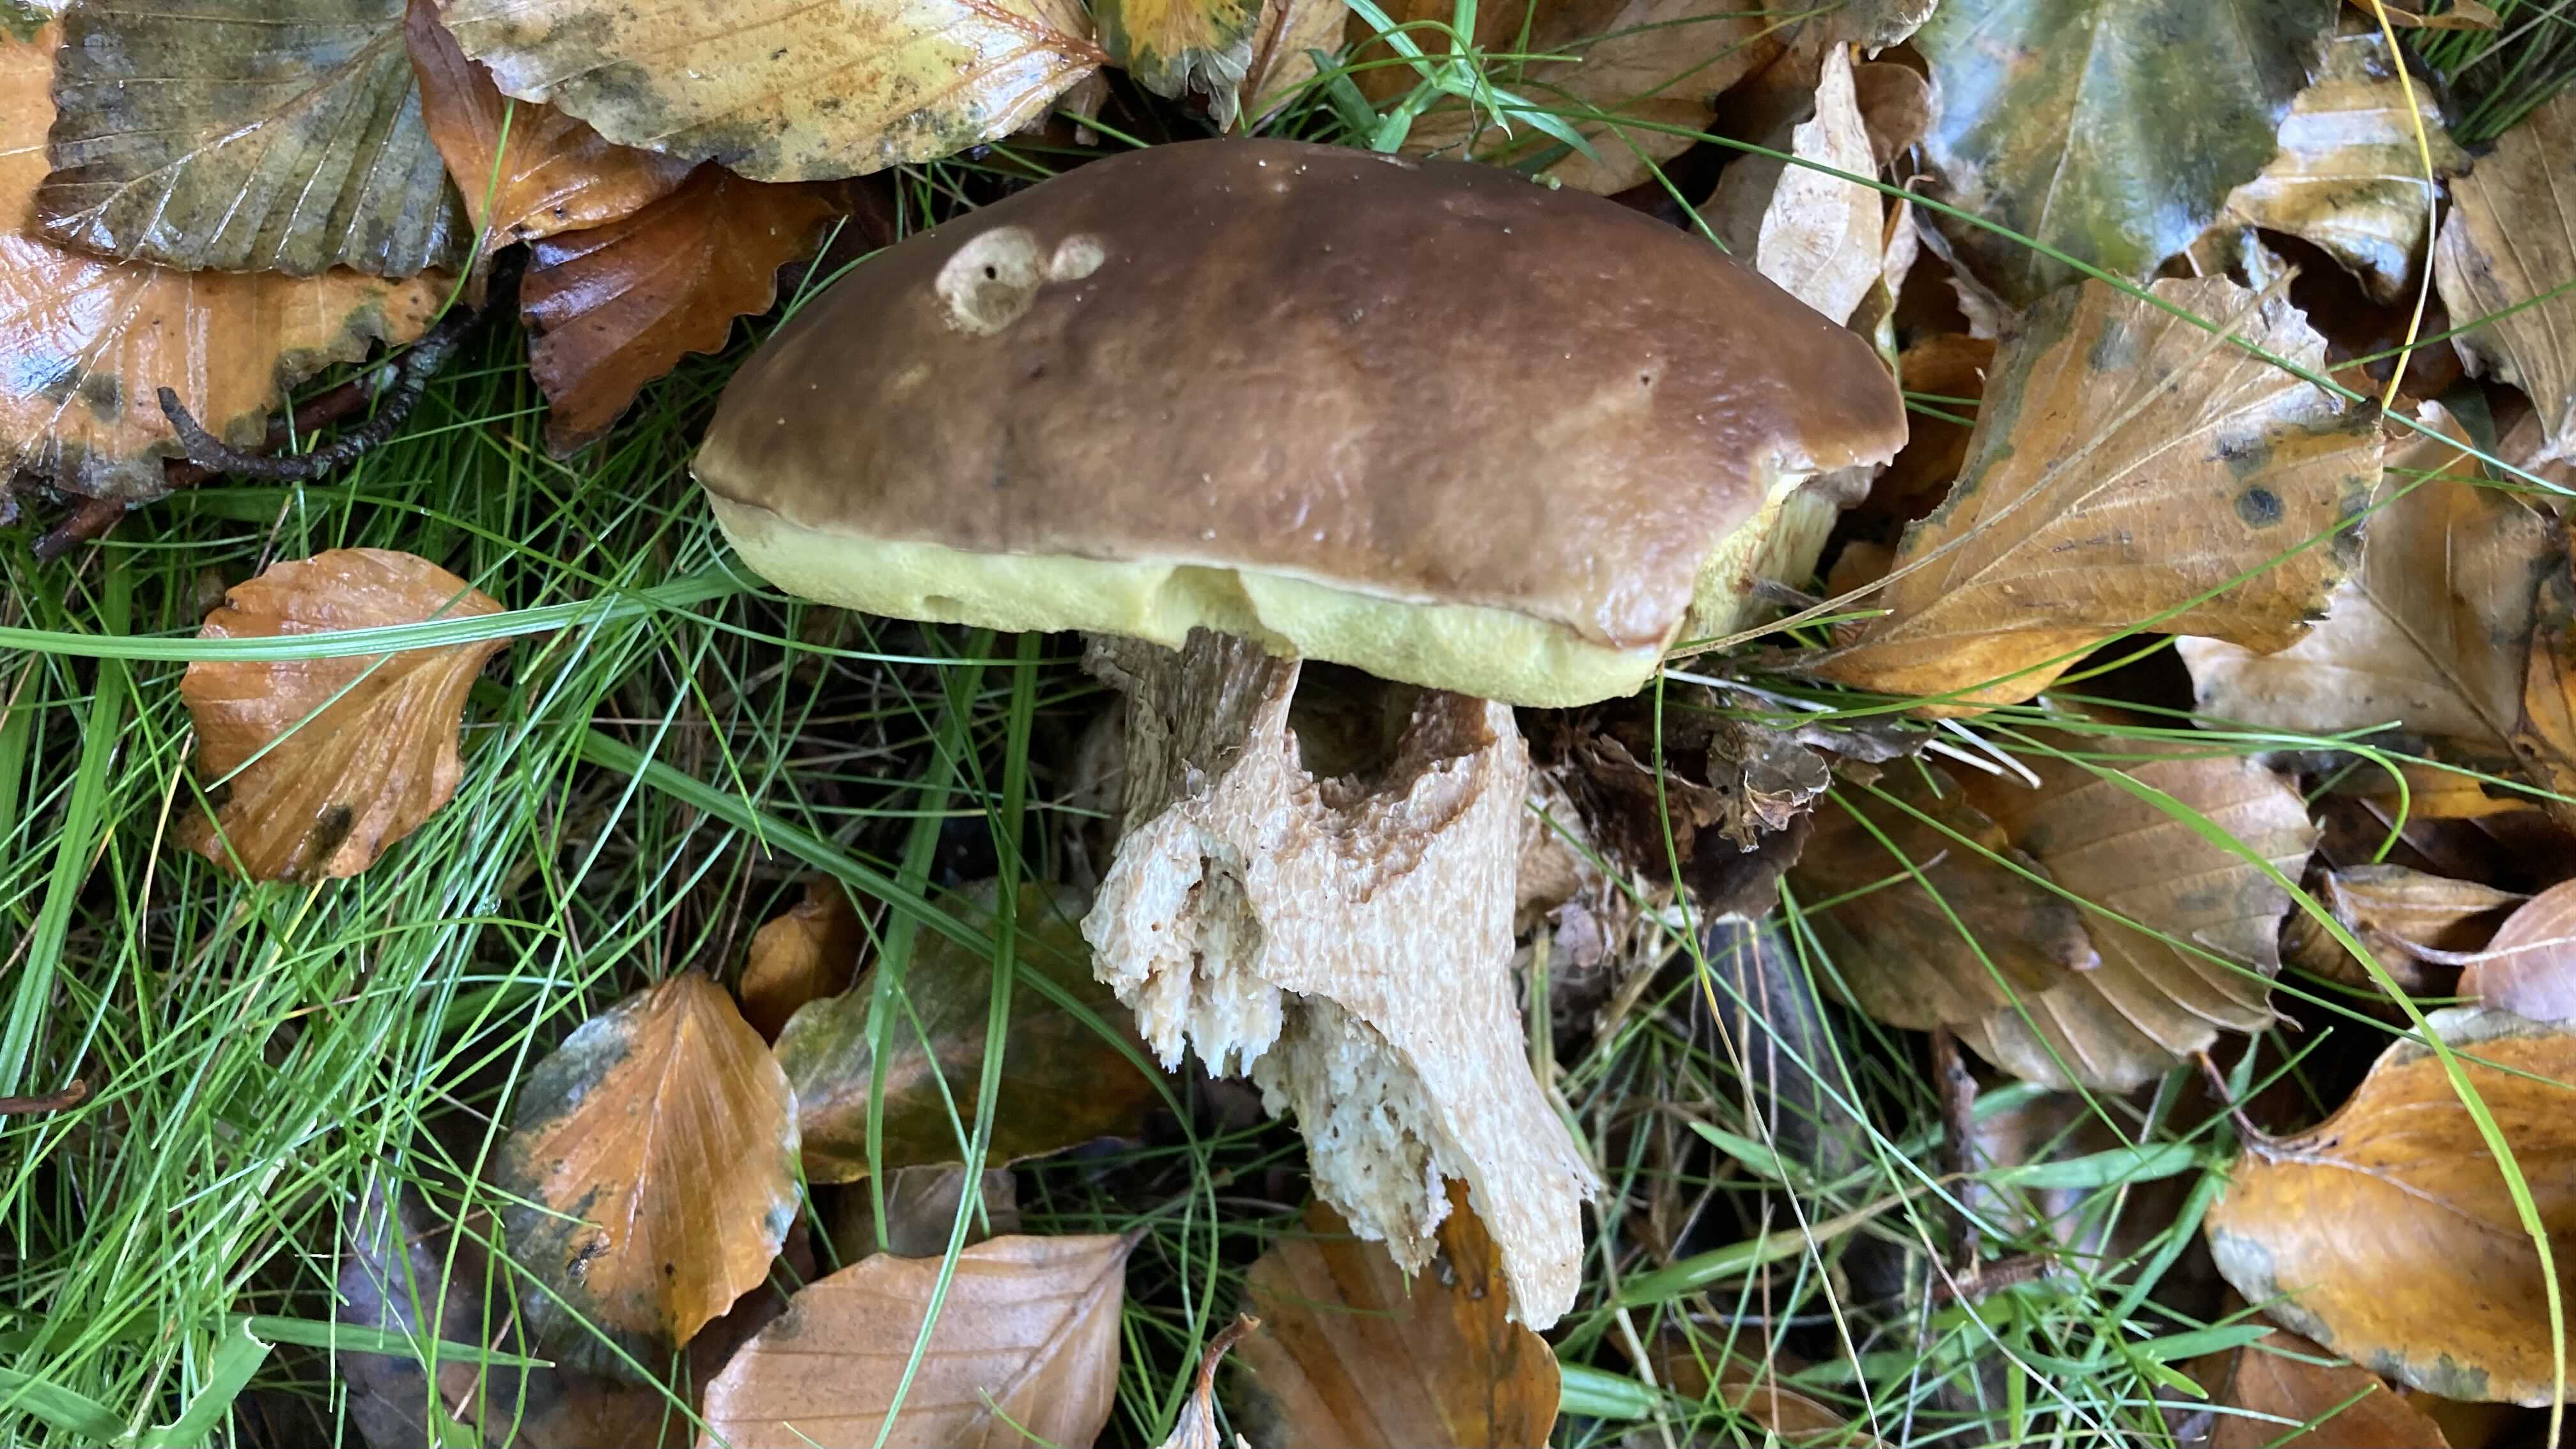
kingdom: Fungi
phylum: Basidiomycota
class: Agaricomycetes
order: Boletales
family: Boletaceae
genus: Boletus
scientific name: Boletus edulis
